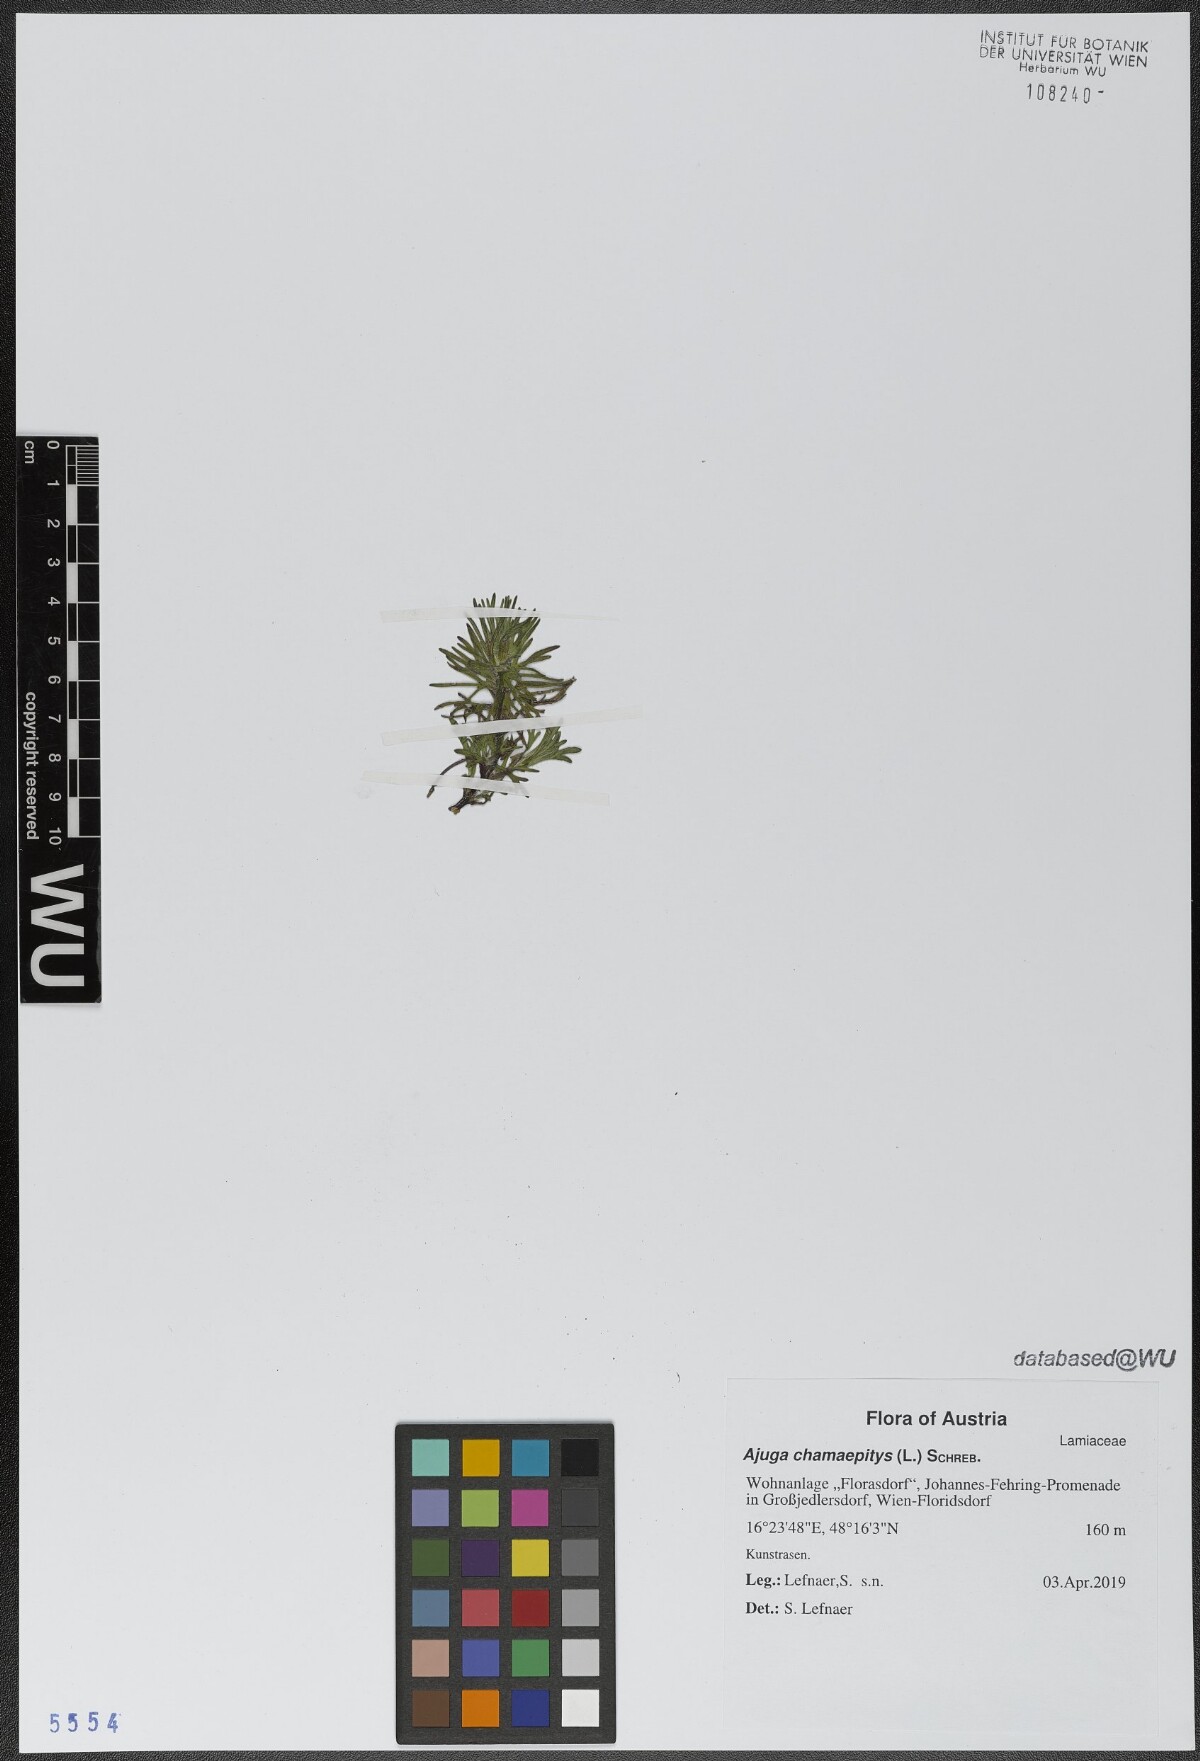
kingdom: Plantae
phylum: Tracheophyta
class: Magnoliopsida
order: Lamiales
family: Lamiaceae
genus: Ajuga
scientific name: Ajuga chamaepitys
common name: Ground-pine
